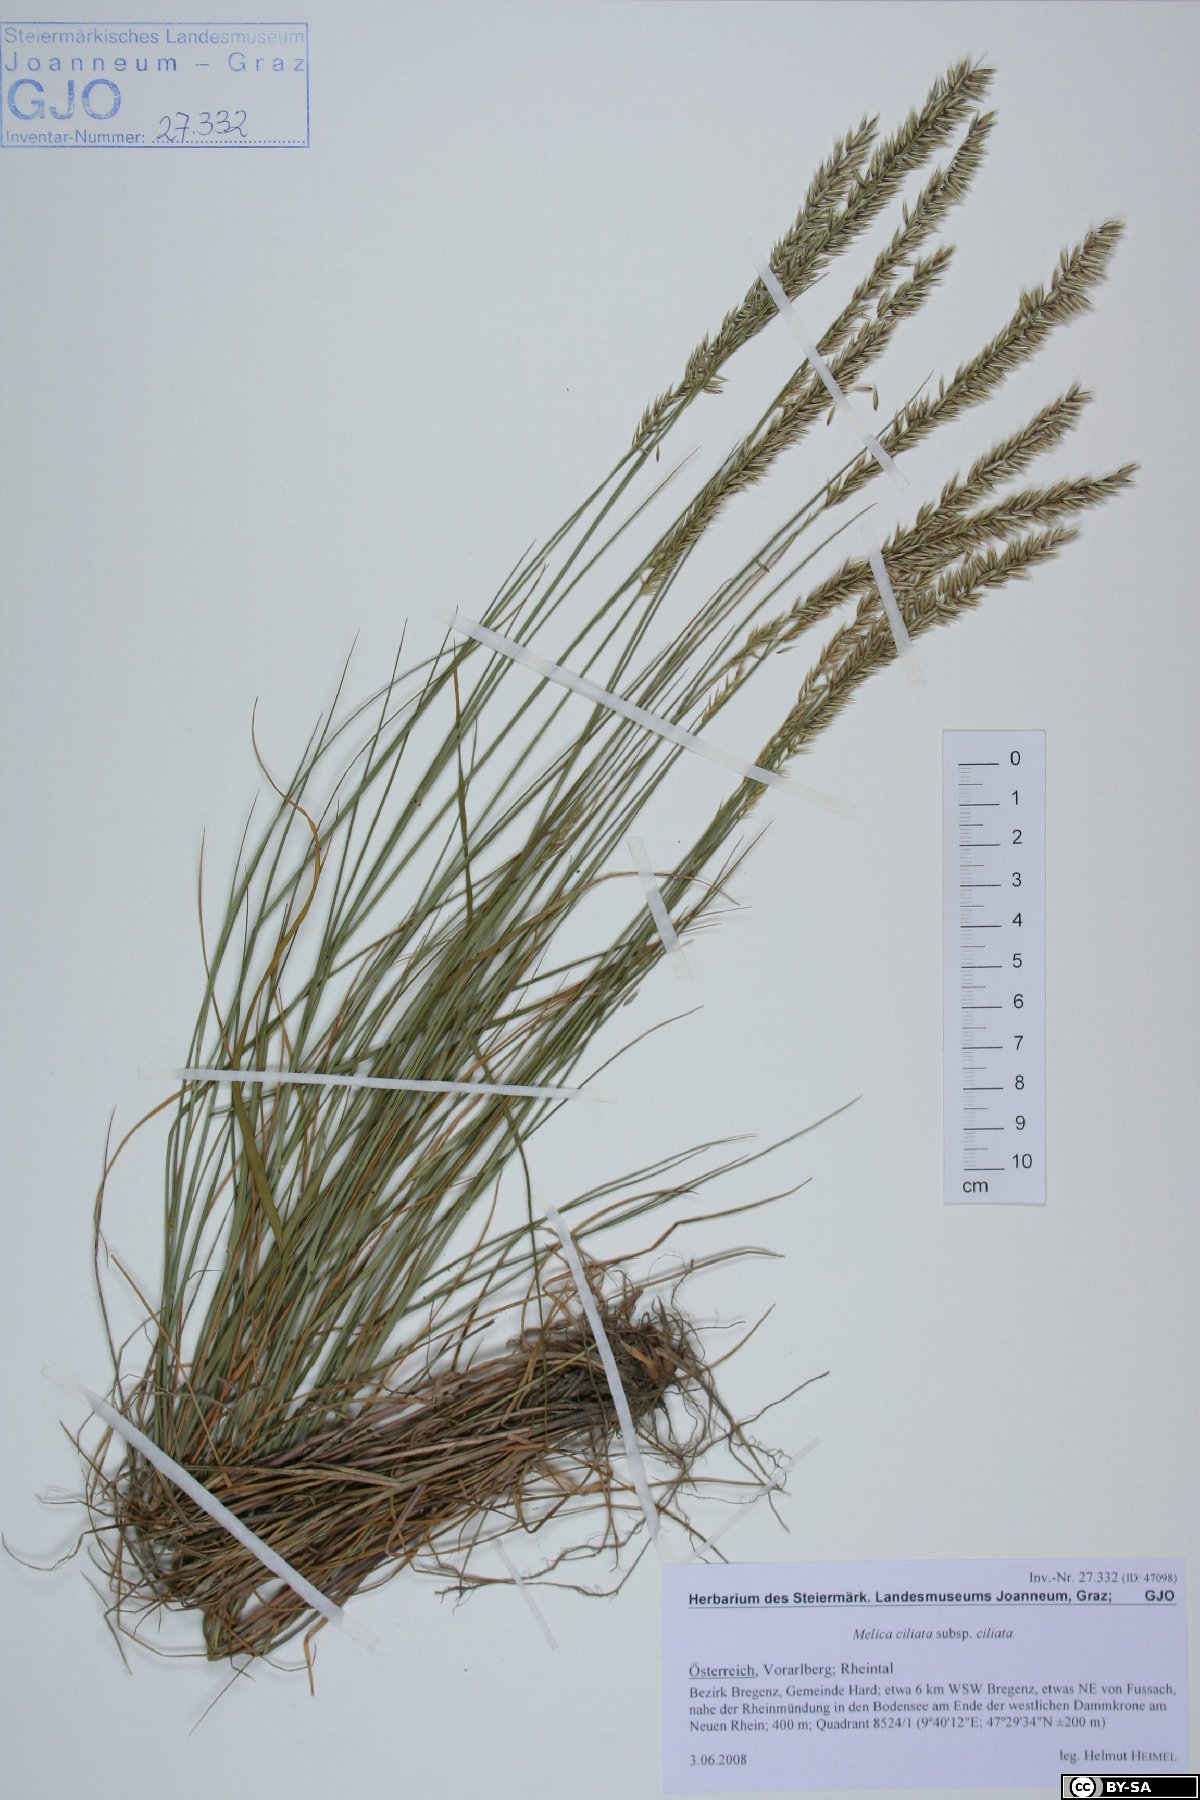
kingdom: Plantae
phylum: Tracheophyta
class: Liliopsida
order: Poales
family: Poaceae
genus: Melica
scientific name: Melica ciliata
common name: Hairy melicgrass
